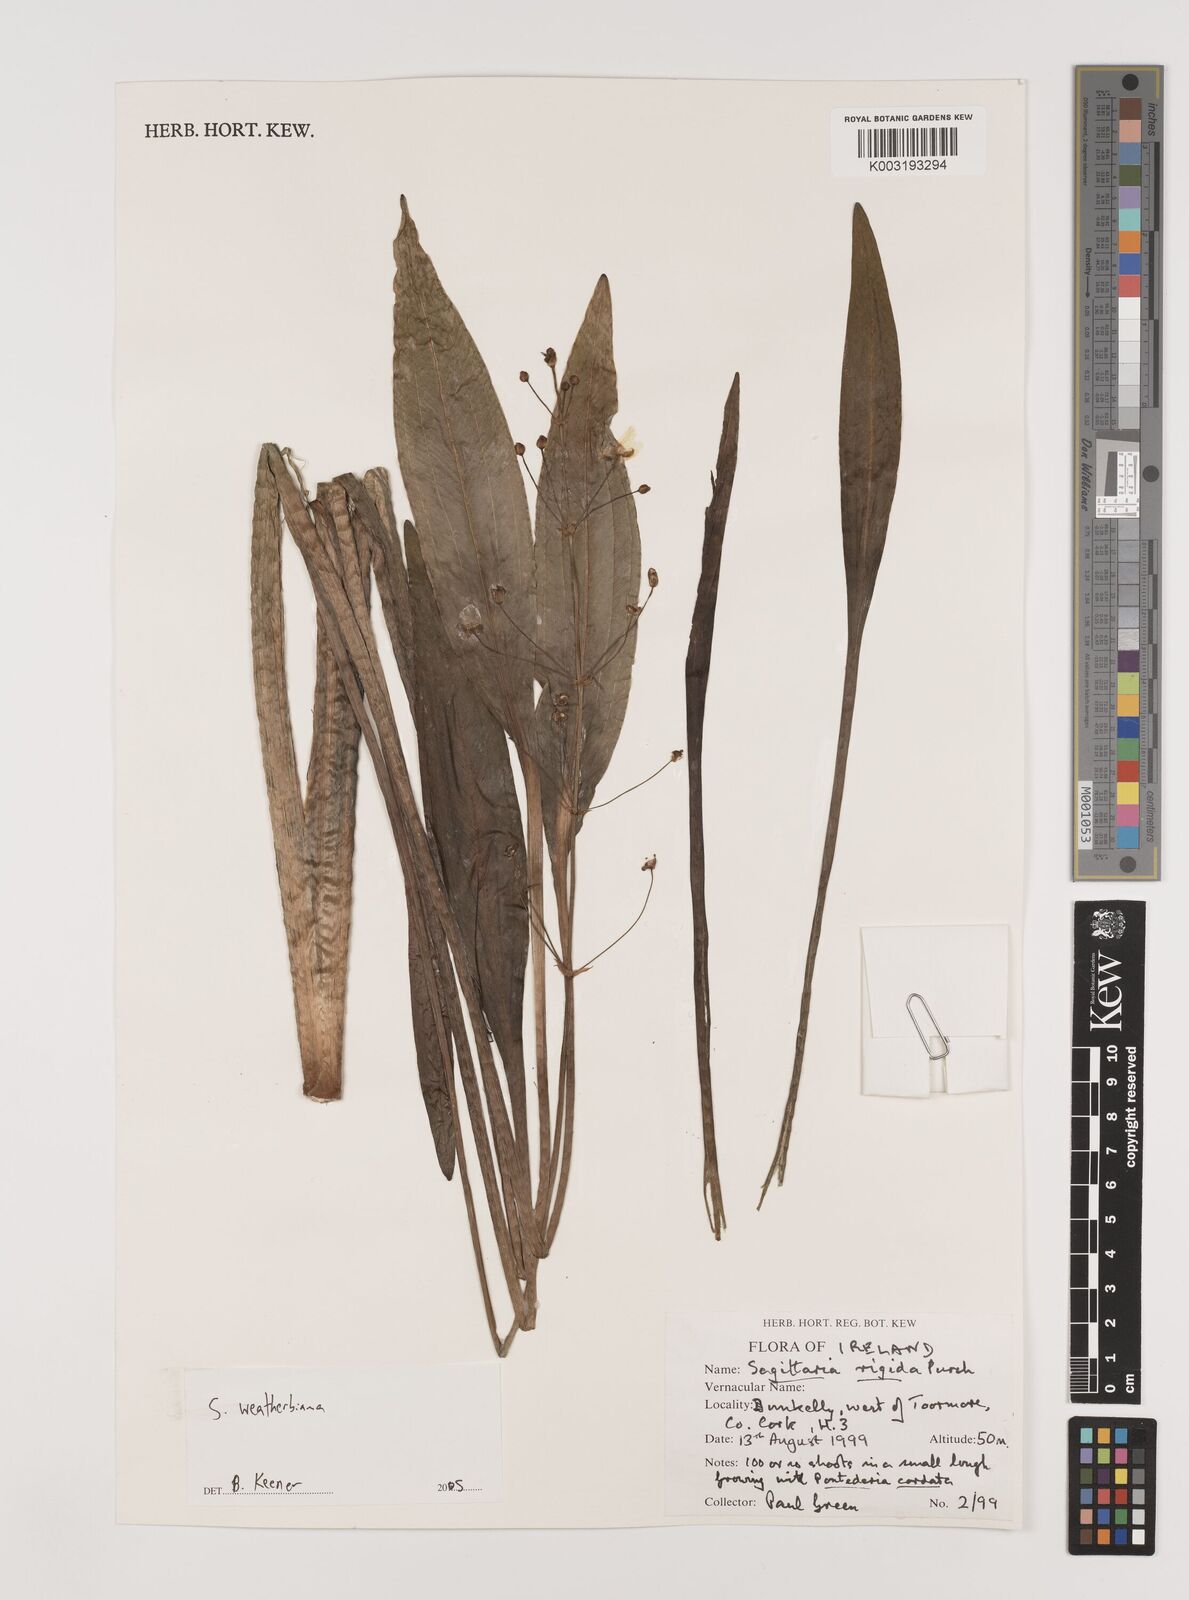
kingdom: Plantae
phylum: Tracheophyta
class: Liliopsida
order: Alismatales
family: Alismataceae
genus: Sagittaria
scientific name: Sagittaria rigida
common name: Canadian arrowhead
